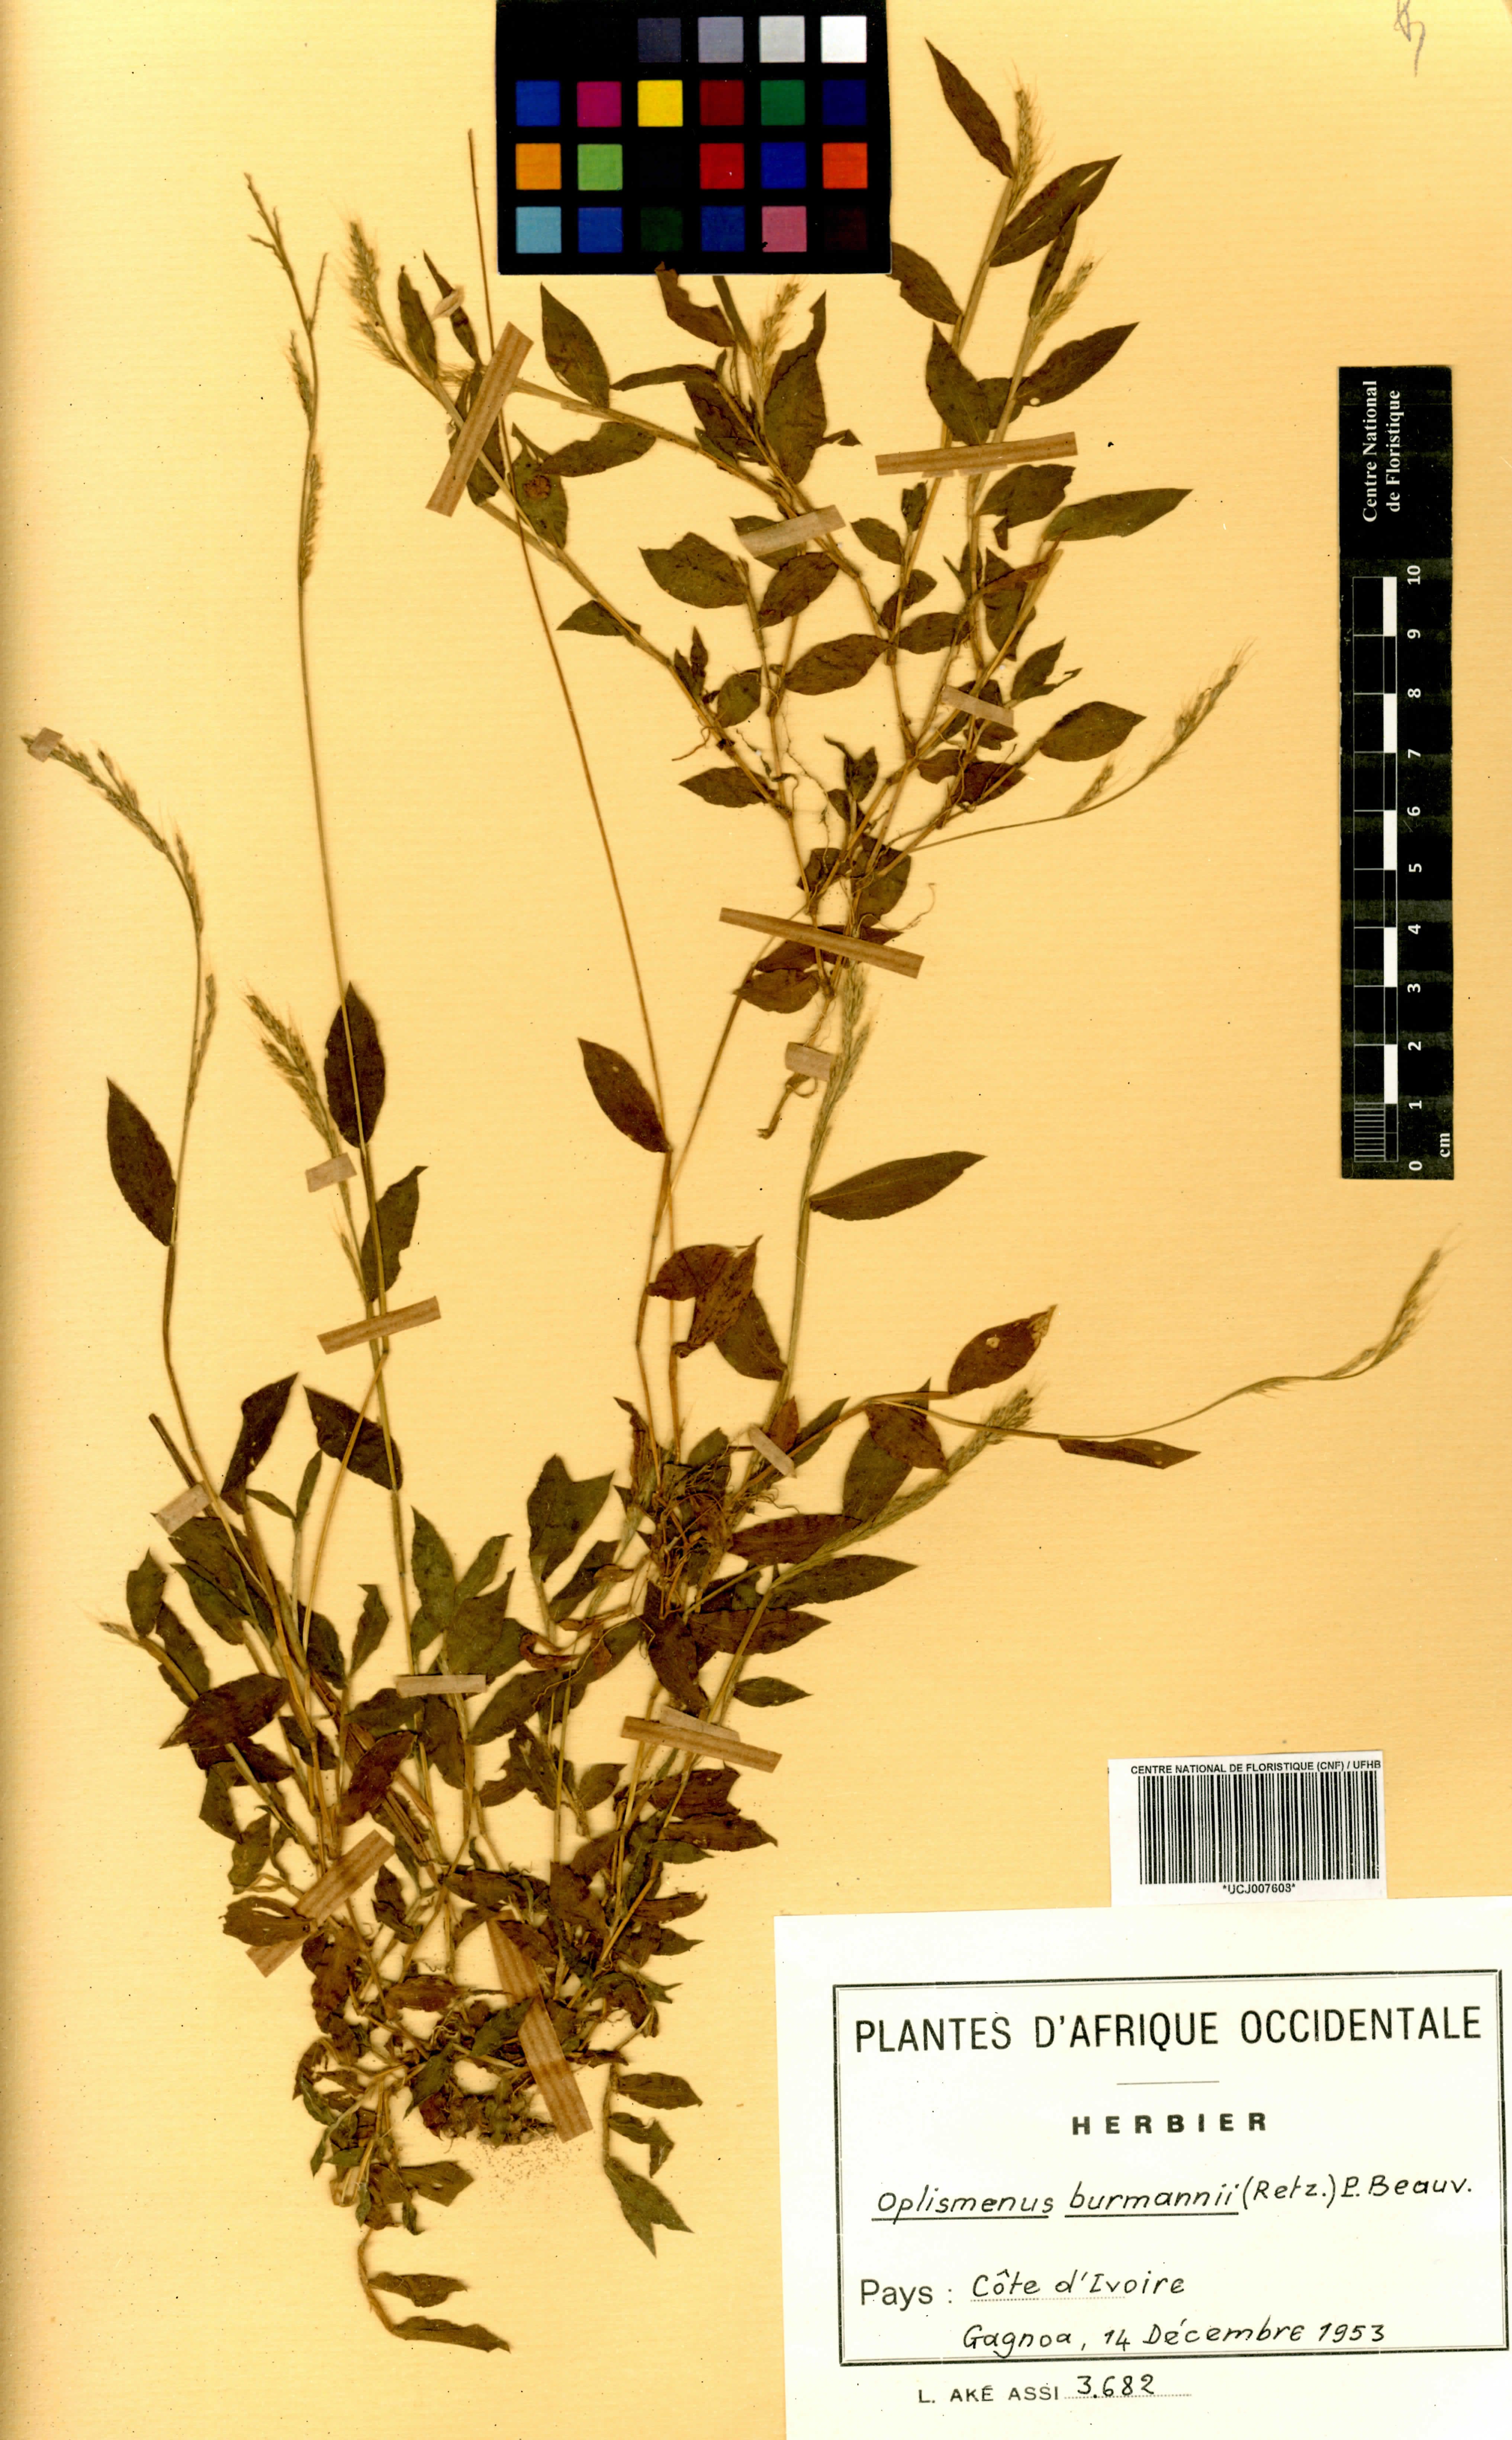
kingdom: Plantae
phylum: Tracheophyta
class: Liliopsida
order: Poales
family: Poaceae
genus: Oplismenus
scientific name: Oplismenus burmanni
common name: Burmann's basketgrass
